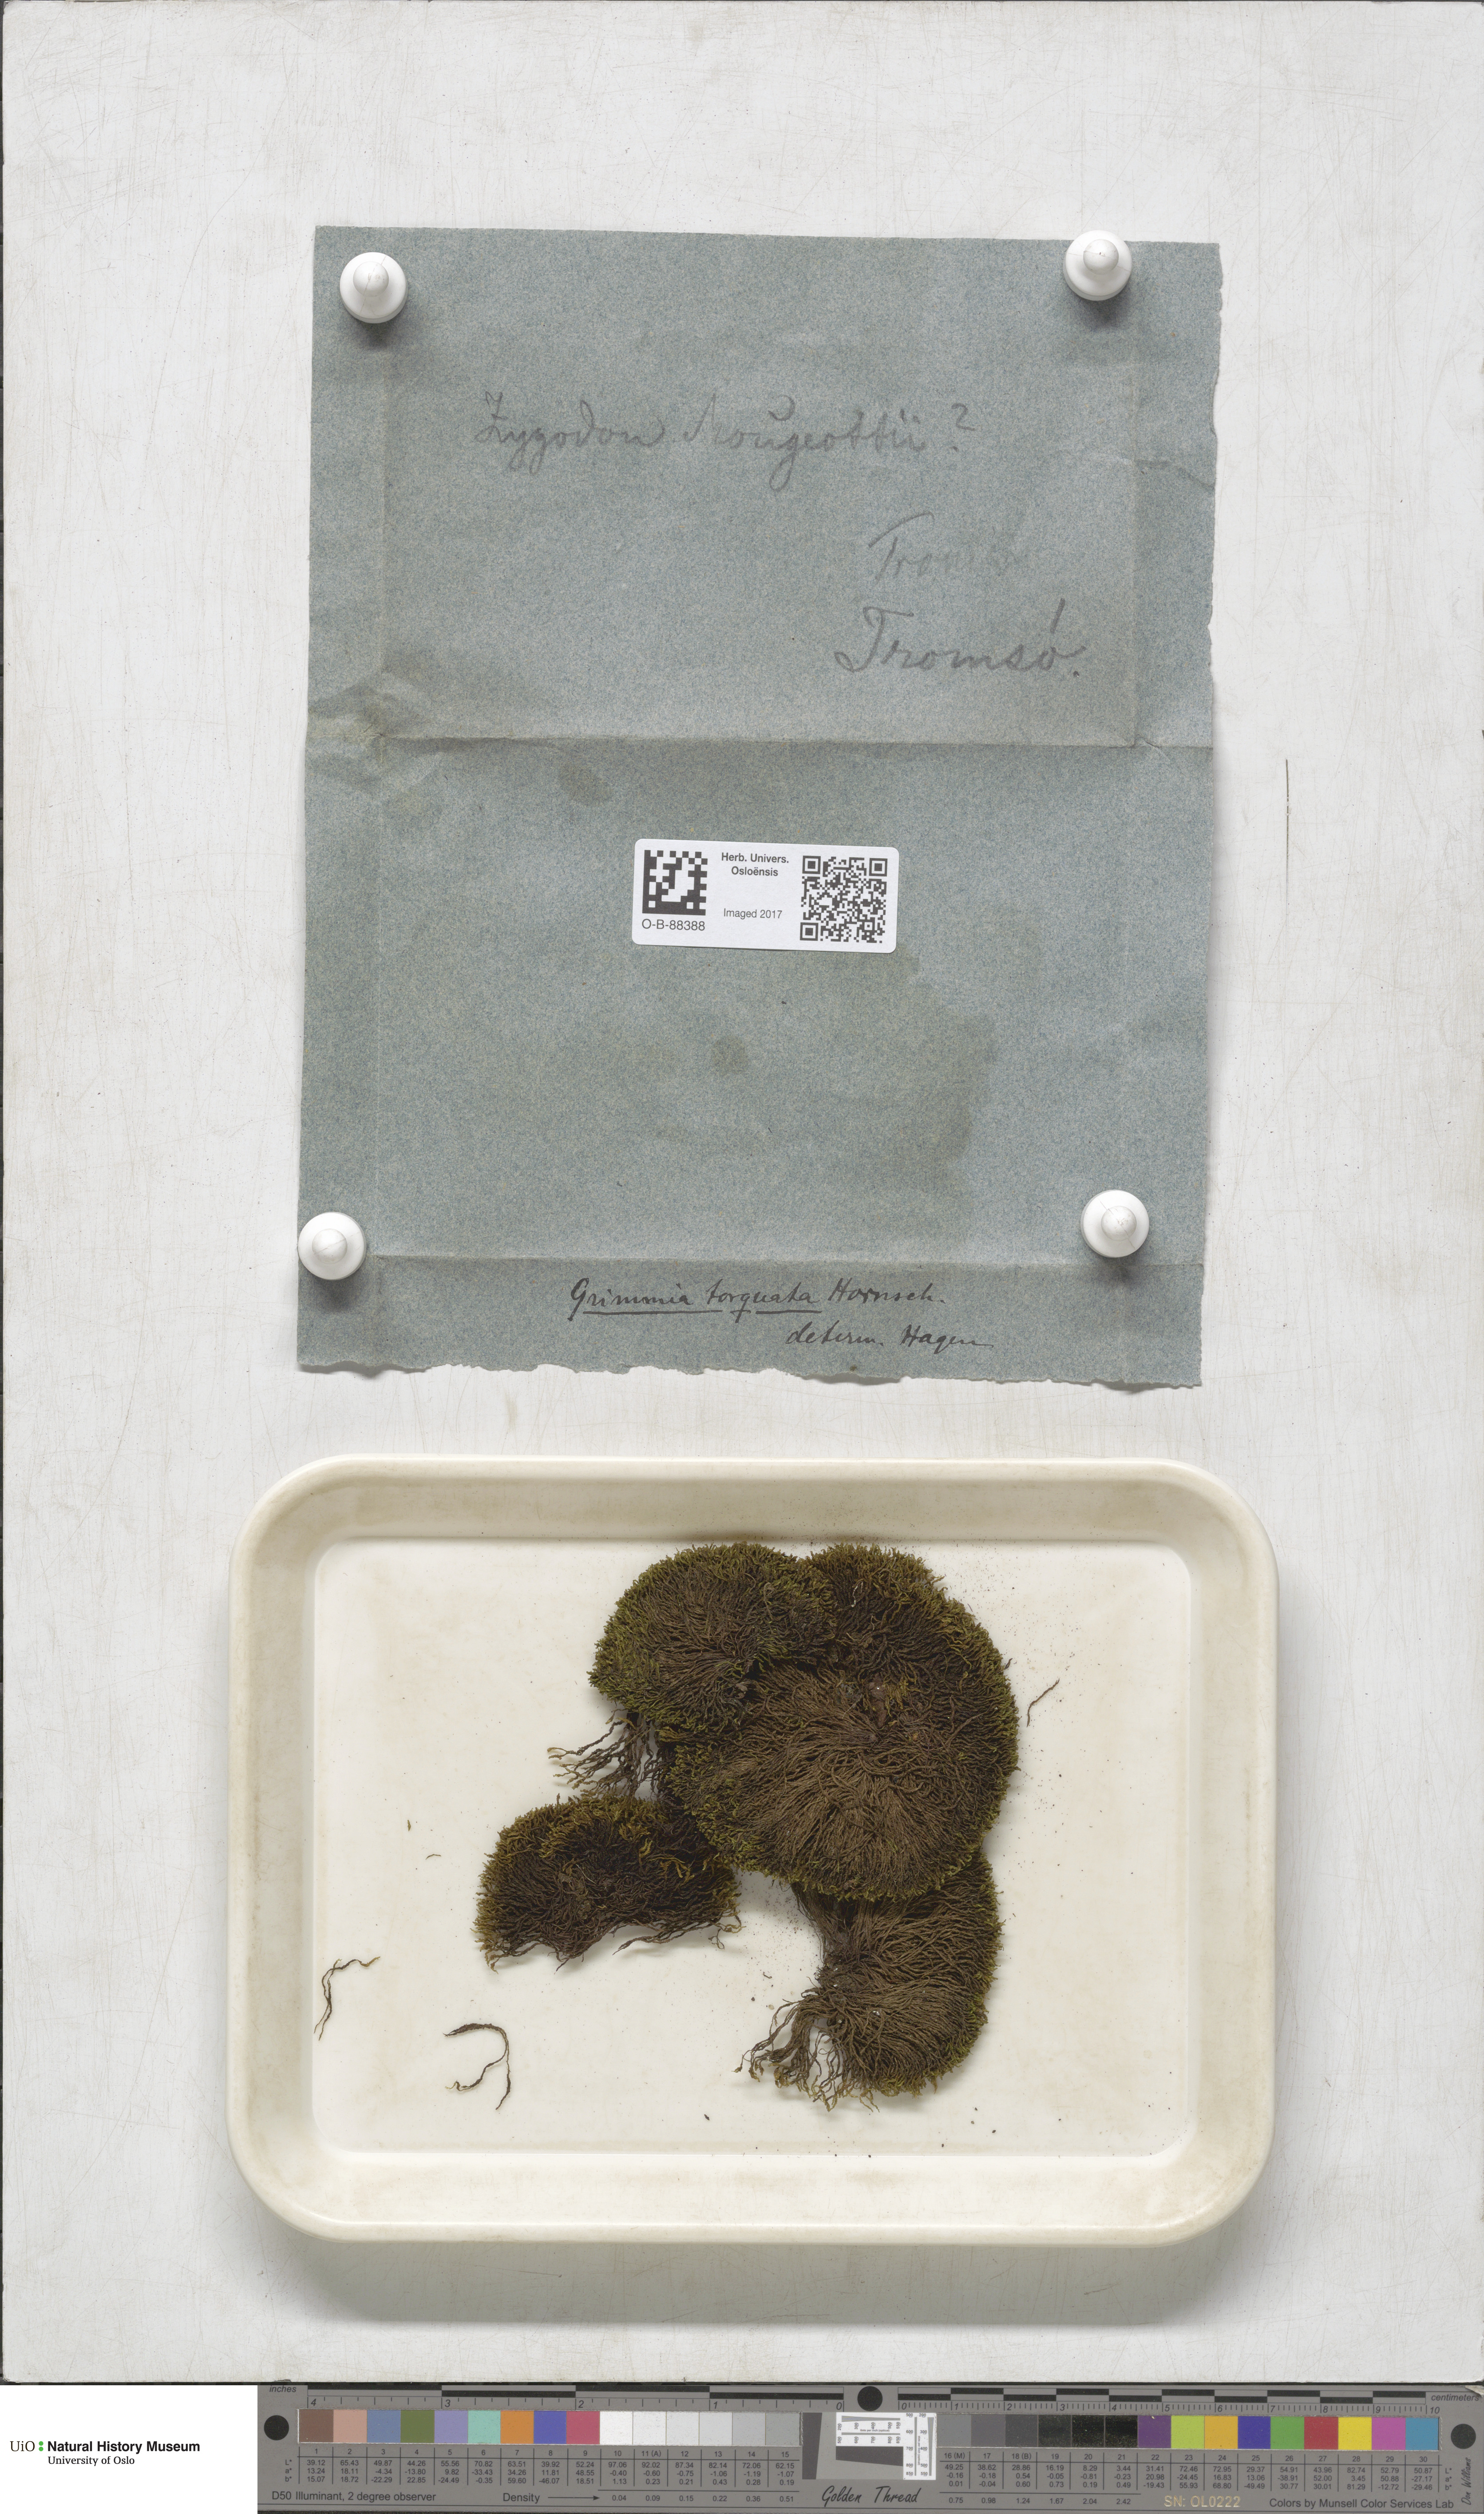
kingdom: Plantae
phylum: Bryophyta
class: Bryopsida
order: Grimmiales
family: Grimmiaceae
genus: Grimmia
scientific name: Grimmia torquata
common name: Twisted grimmia
